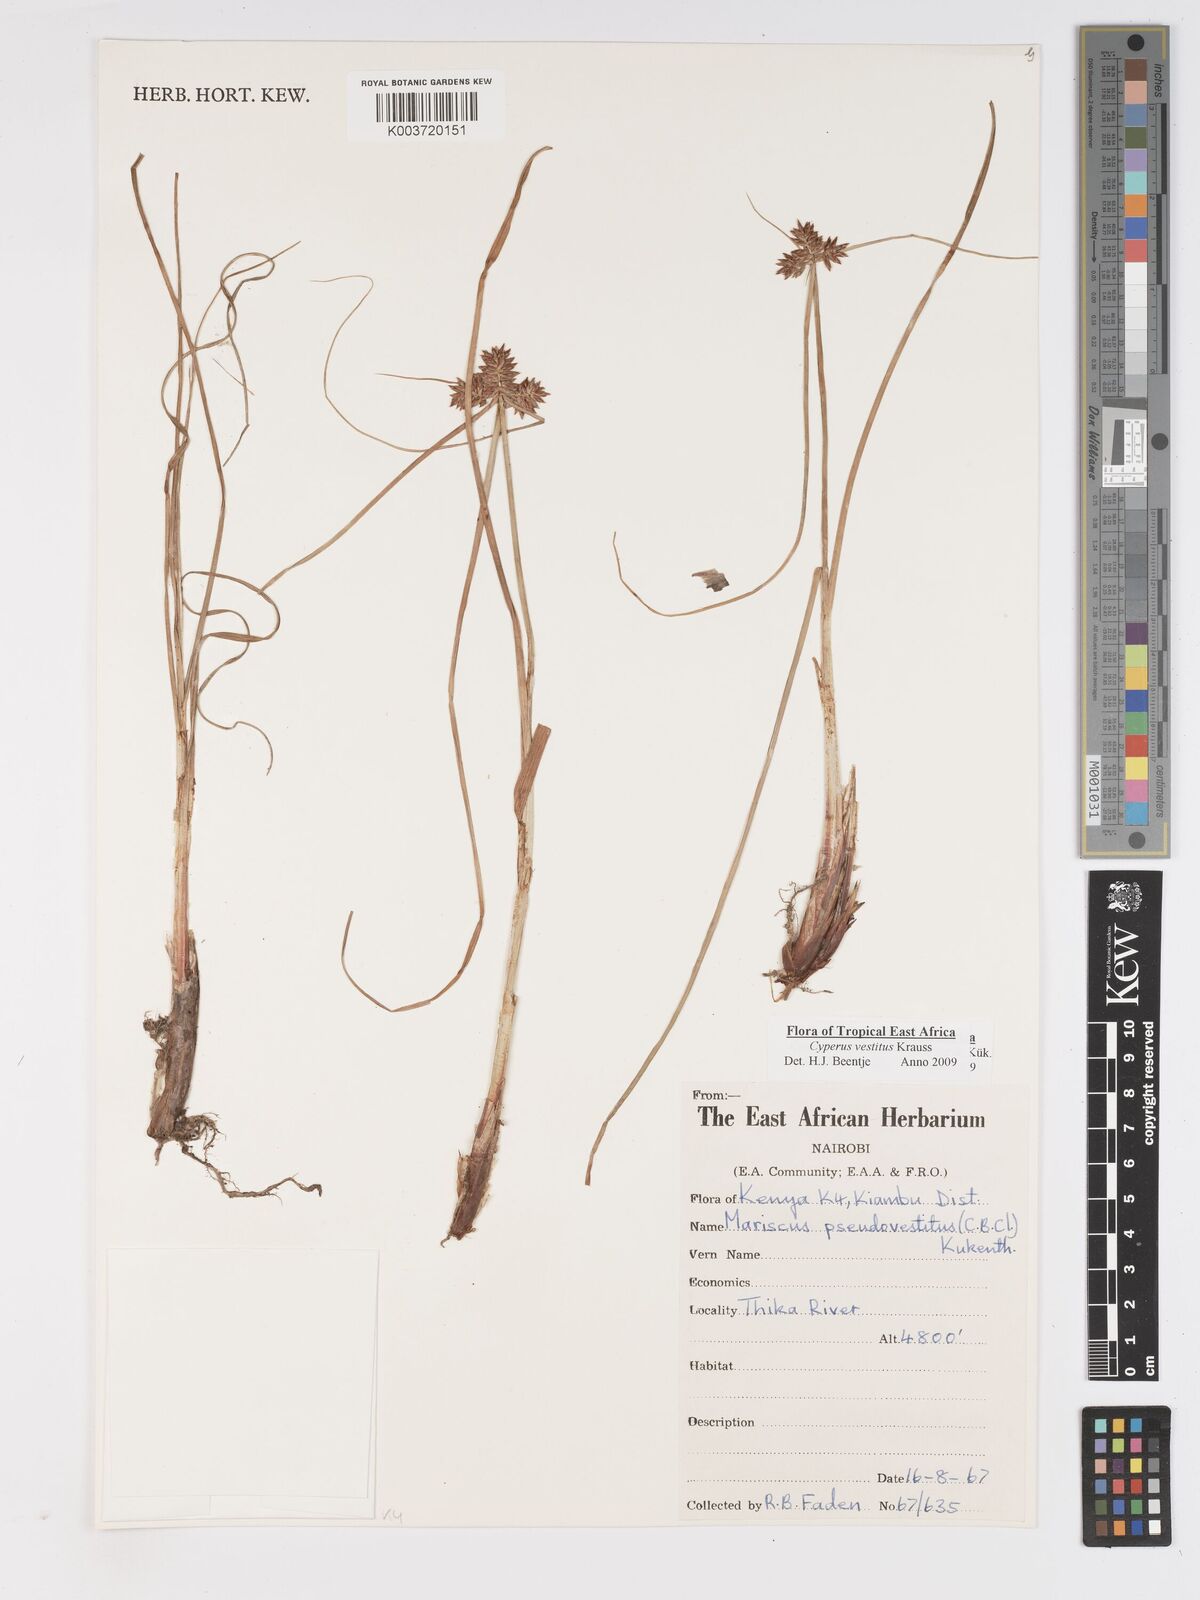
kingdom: Plantae
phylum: Tracheophyta
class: Liliopsida
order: Poales
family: Cyperaceae
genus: Cyperus
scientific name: Cyperus vestitus
